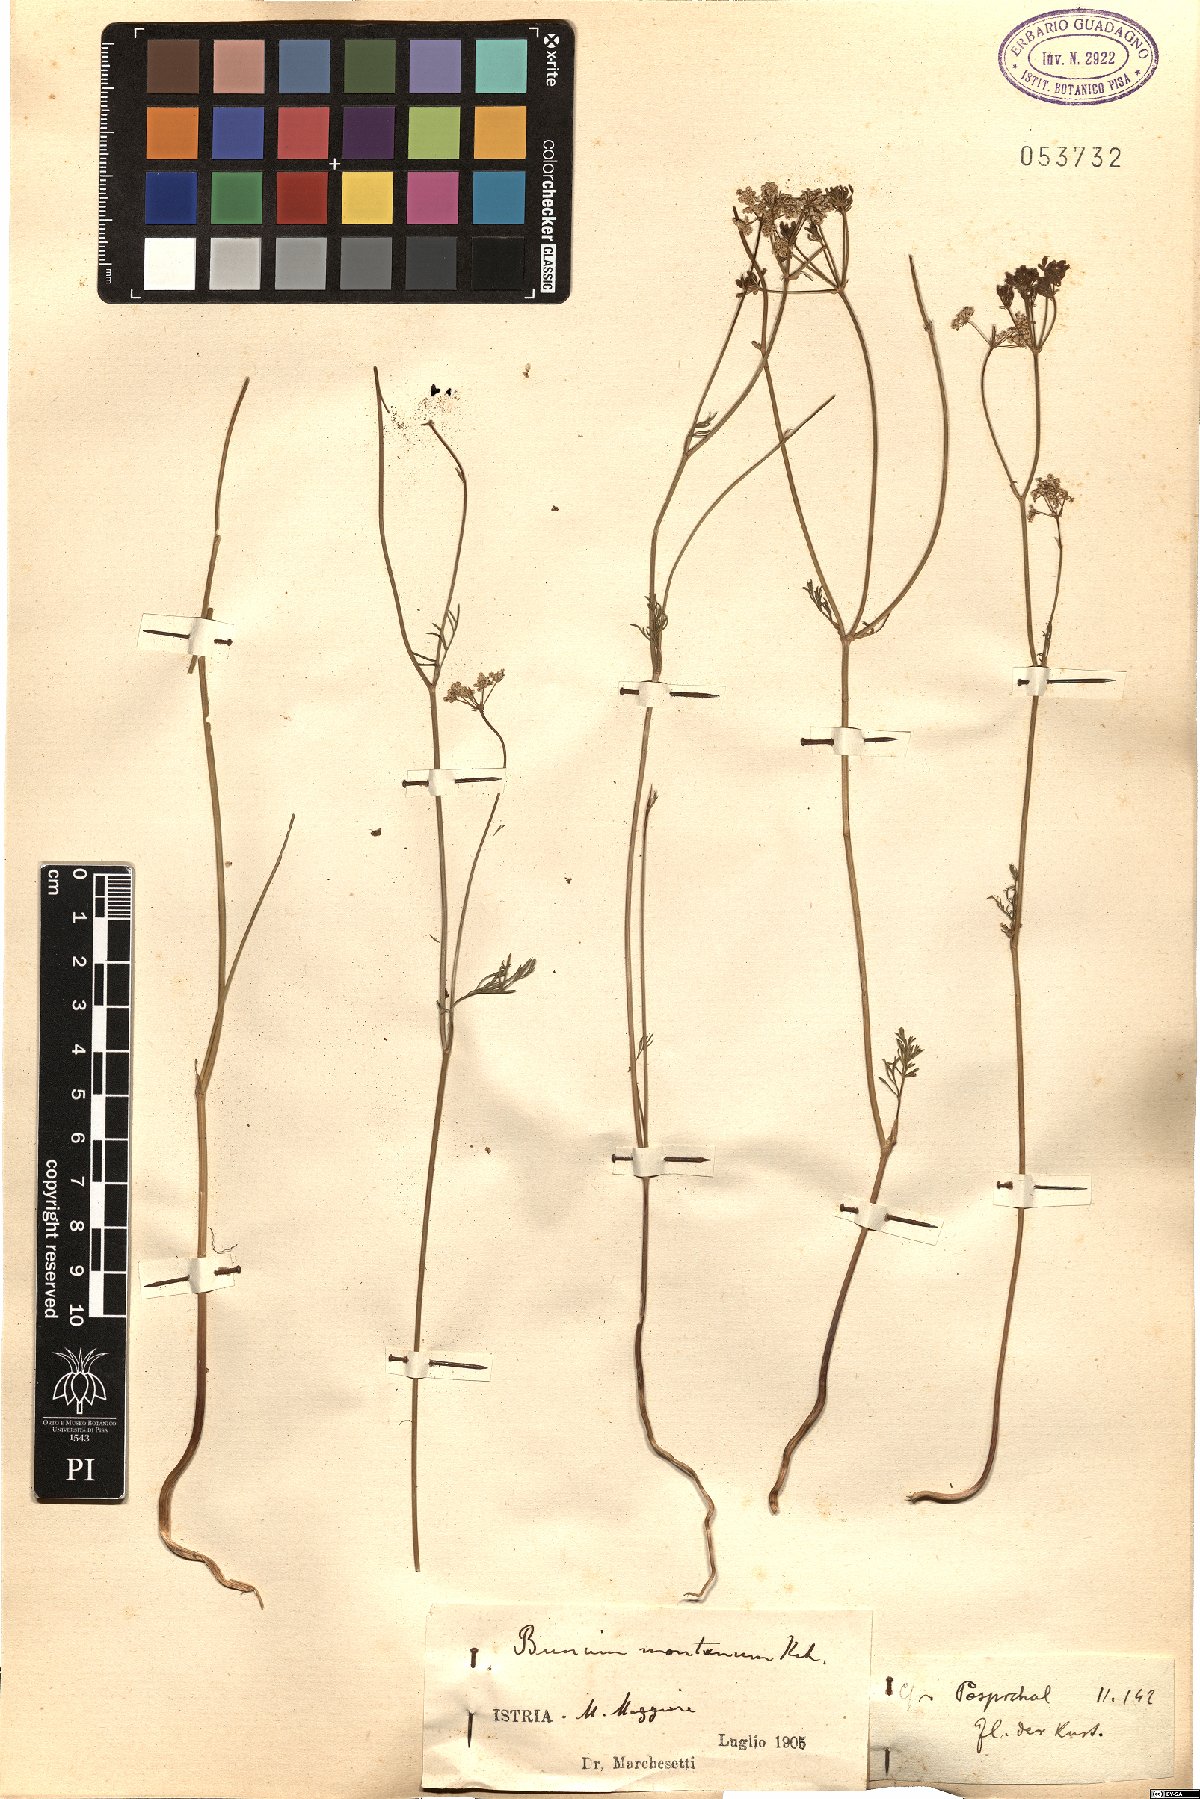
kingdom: Plantae
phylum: Tracheophyta
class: Magnoliopsida
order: Apiales
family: Apiaceae
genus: Bunium
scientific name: Bunium alpinum
